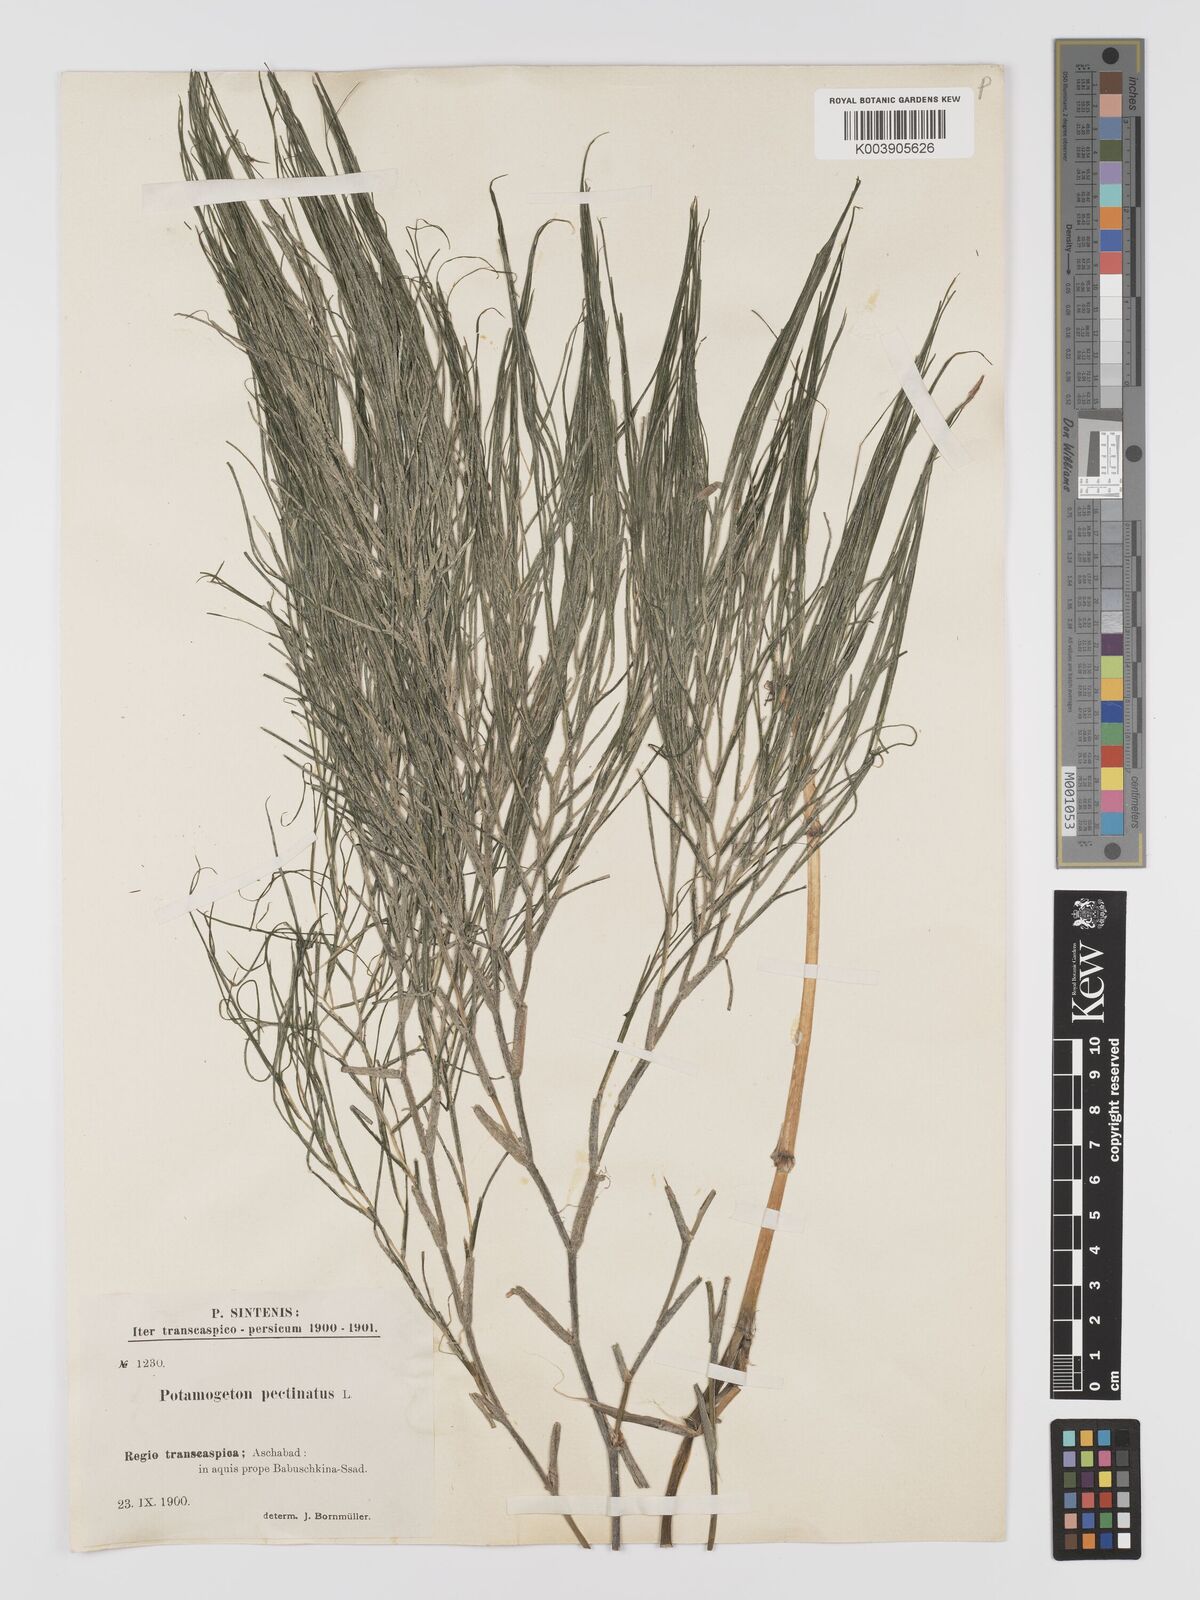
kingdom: Plantae
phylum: Tracheophyta
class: Liliopsida
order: Alismatales
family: Potamogetonaceae
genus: Stuckenia
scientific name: Stuckenia pectinata
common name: Sago pondweed
